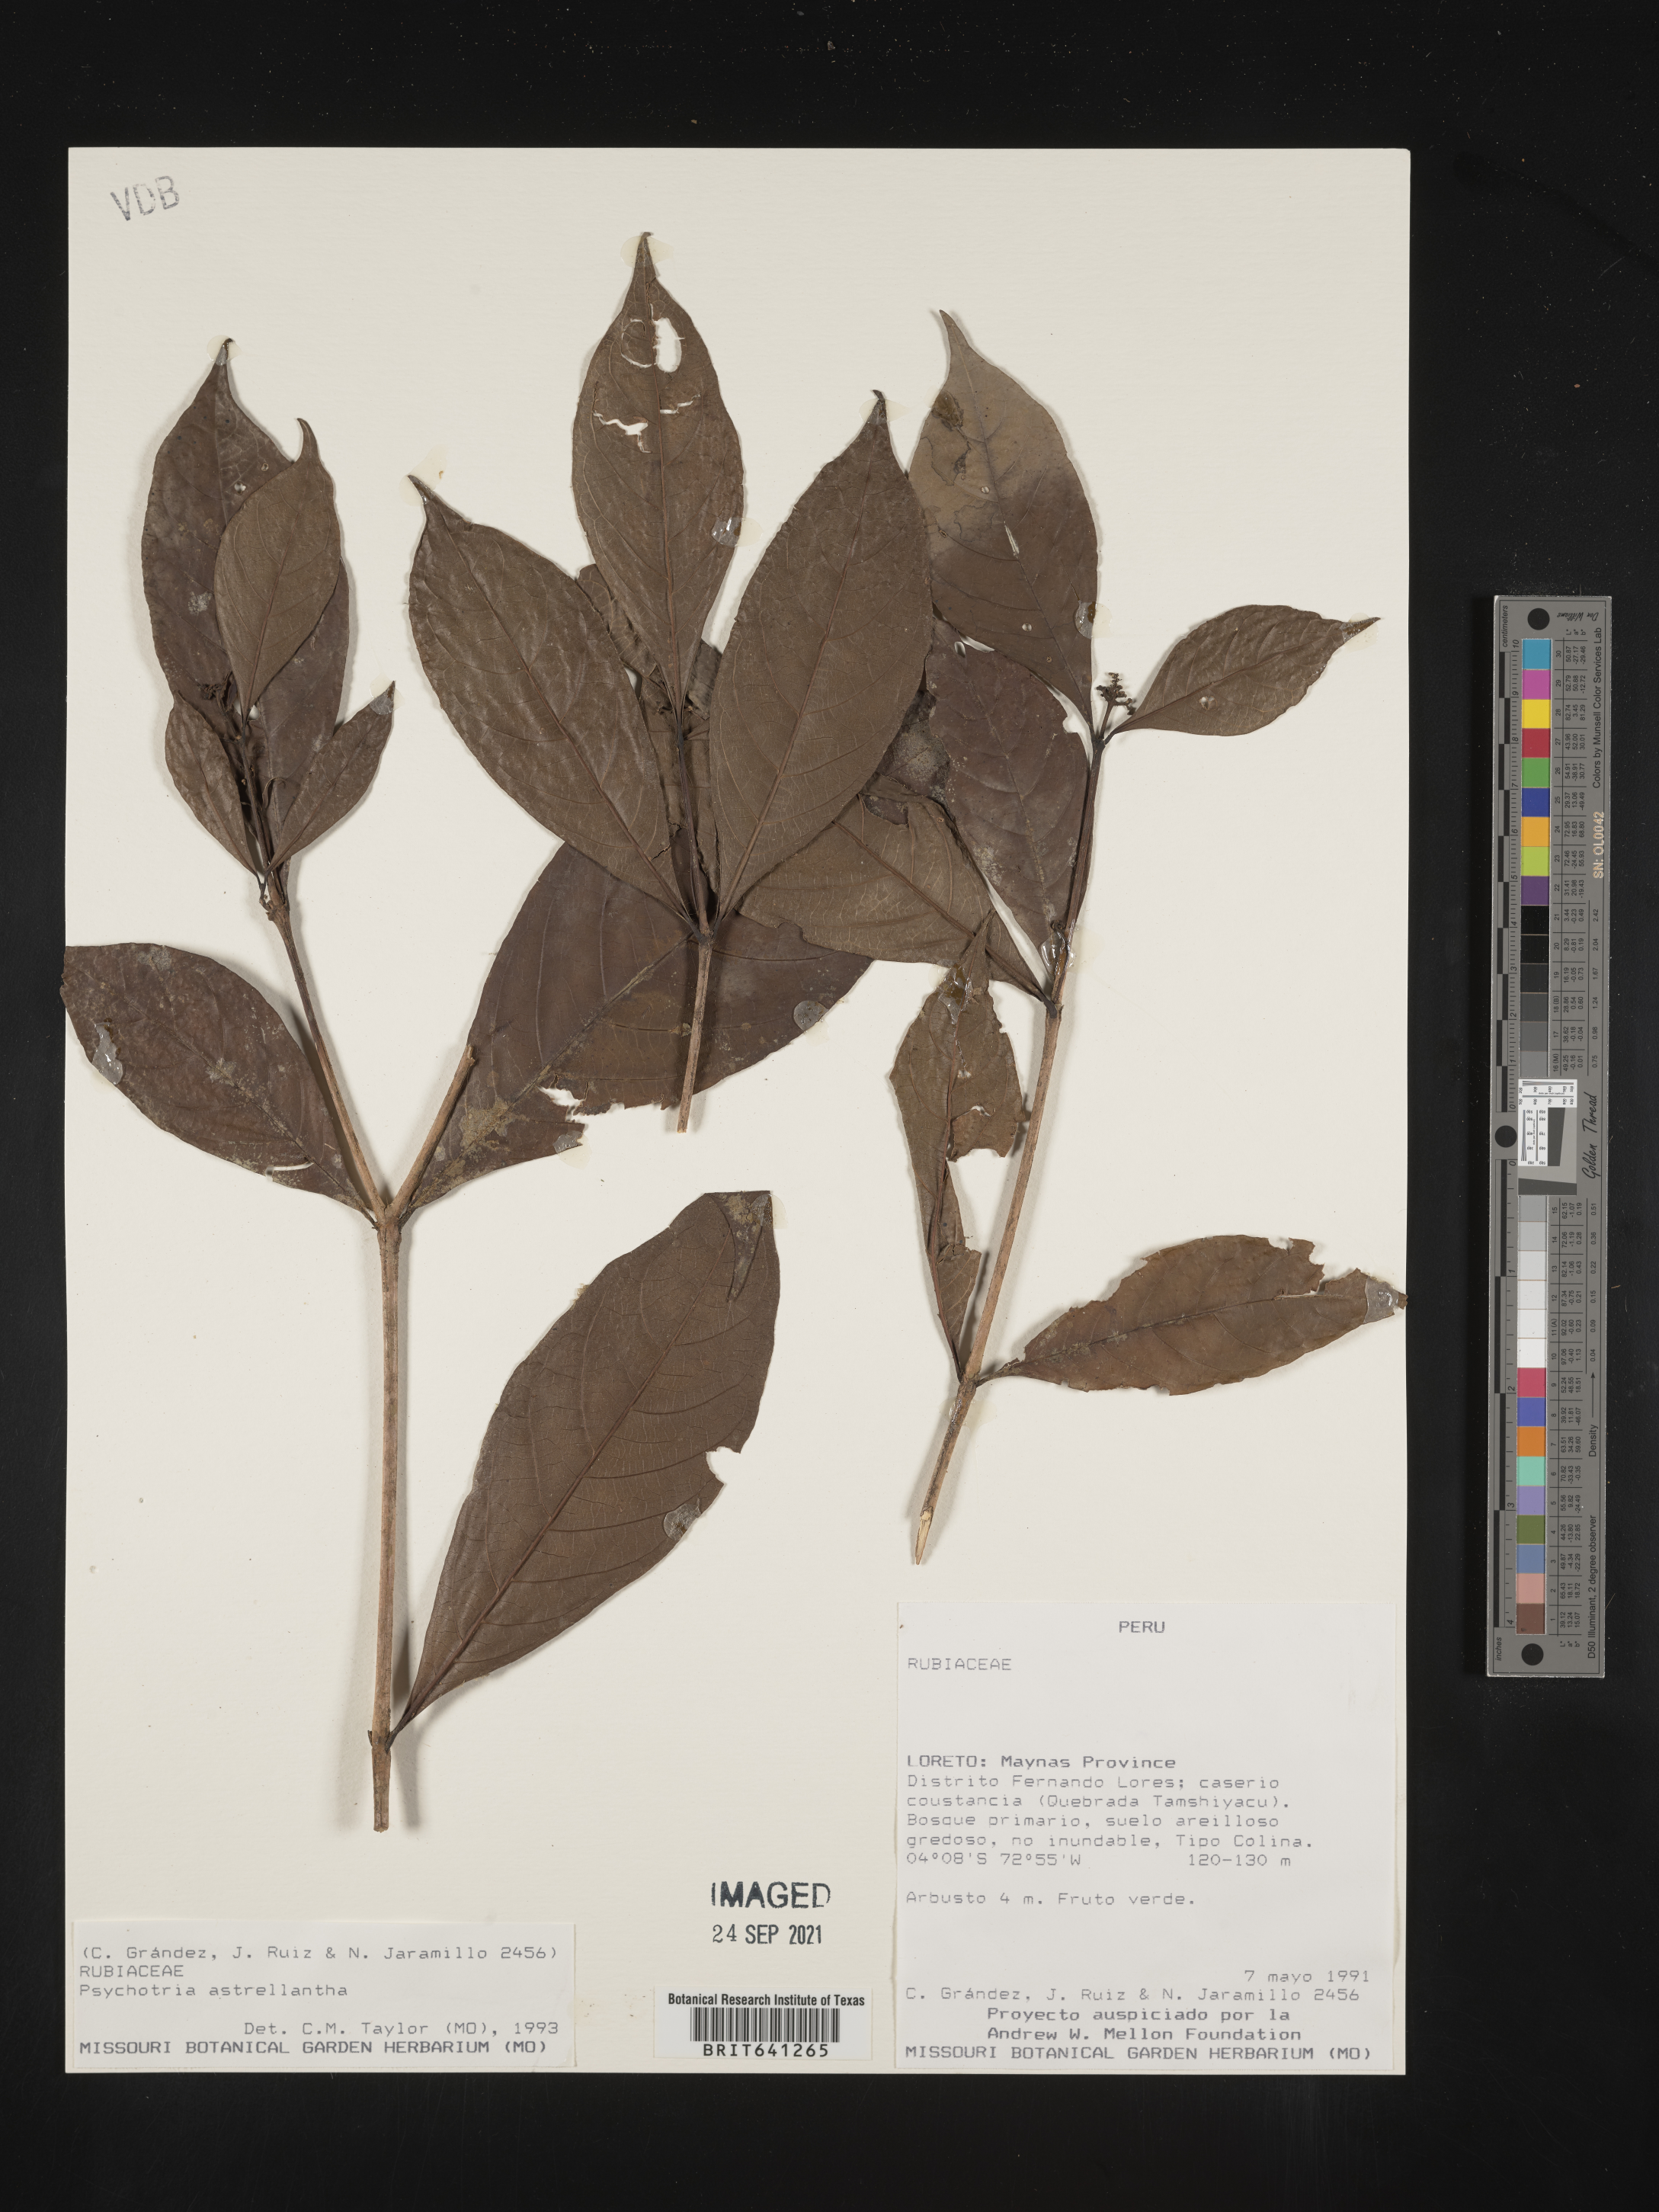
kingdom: Plantae
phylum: Tracheophyta
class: Magnoliopsida
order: Gentianales
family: Rubiaceae
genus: Psychotria
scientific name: Psychotria
